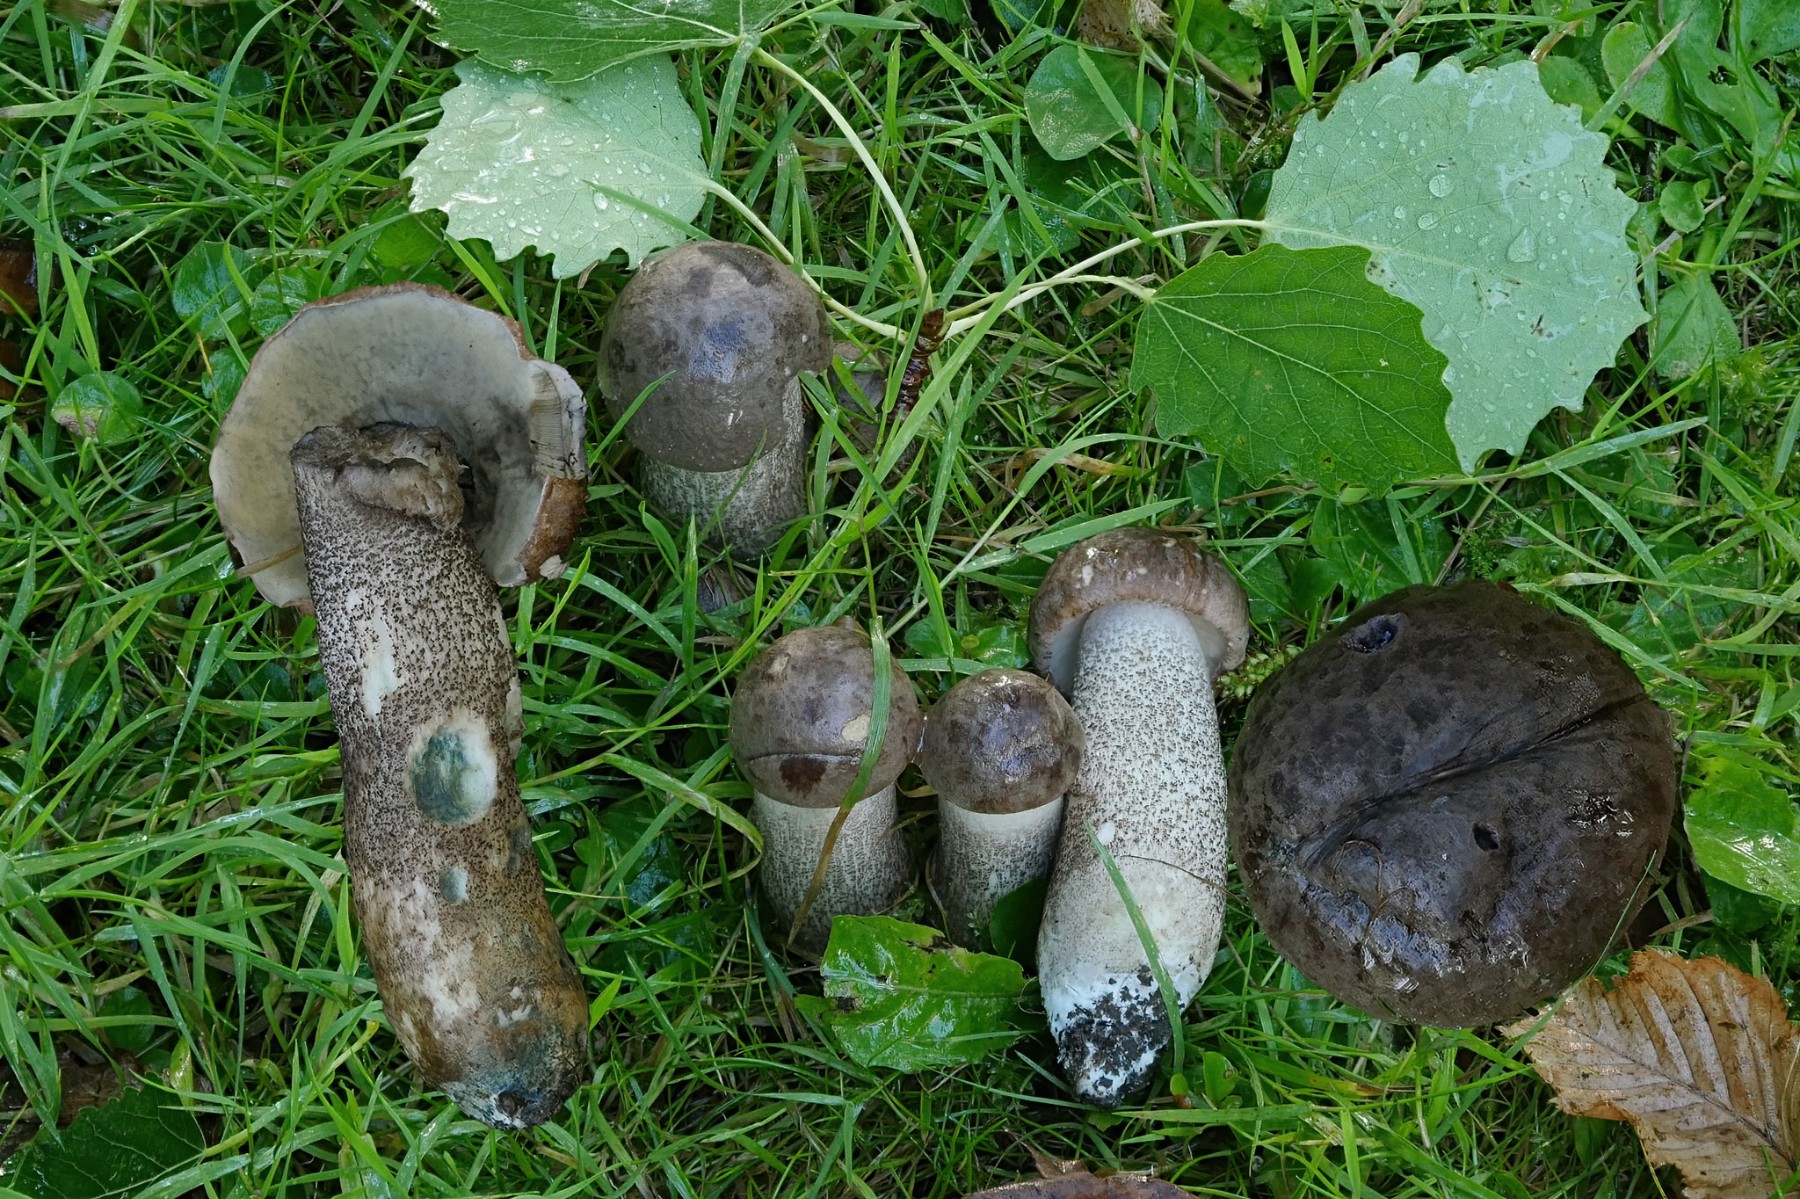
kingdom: Fungi
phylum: Basidiomycota
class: Agaricomycetes
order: Boletales
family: Boletaceae
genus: Leccinum
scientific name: Leccinum duriusculum
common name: poppel-skælrørhat
